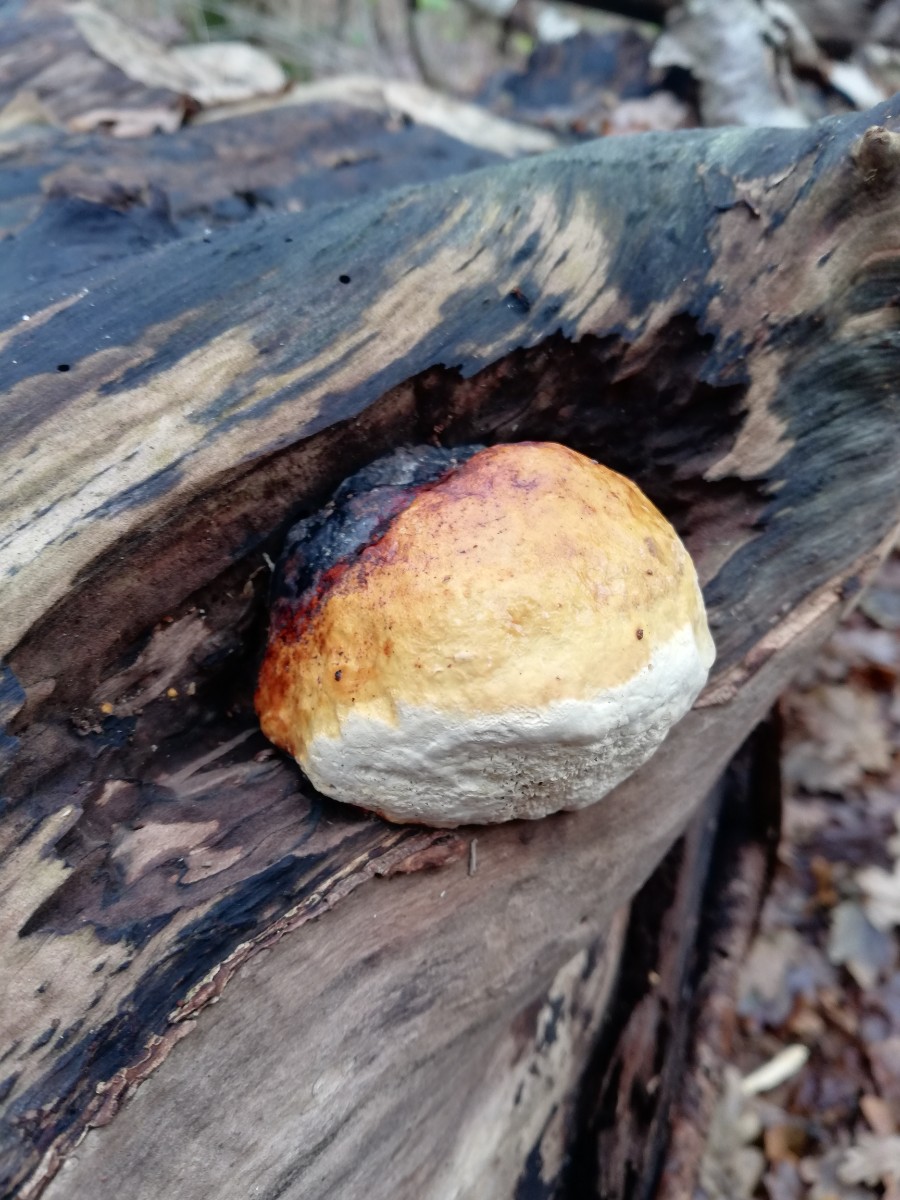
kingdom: Fungi
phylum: Basidiomycota
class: Agaricomycetes
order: Polyporales
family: Fomitopsidaceae
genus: Fomitopsis
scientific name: Fomitopsis pinicola
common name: randbæltet hovporesvamp
